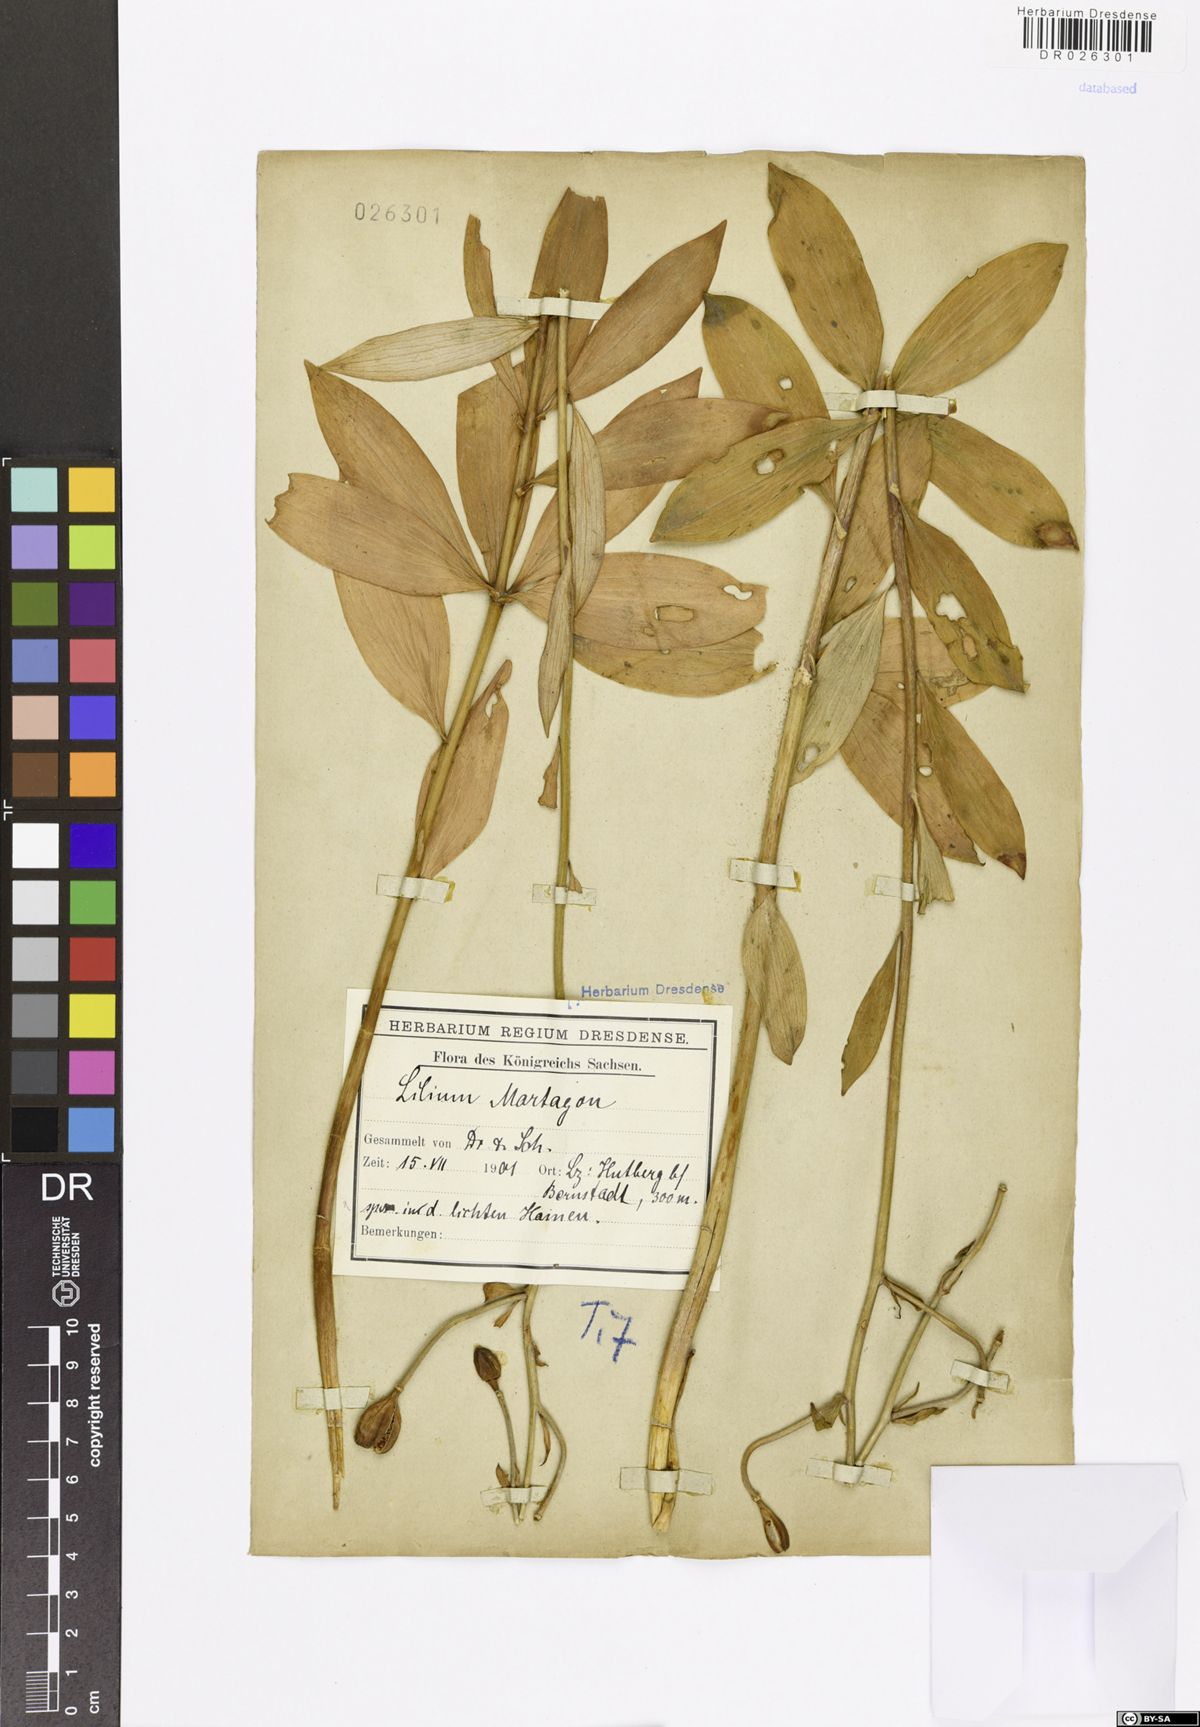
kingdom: Plantae
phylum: Tracheophyta
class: Liliopsida
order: Liliales
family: Liliaceae
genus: Lilium
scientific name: Lilium martagon
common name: Martagon lily
